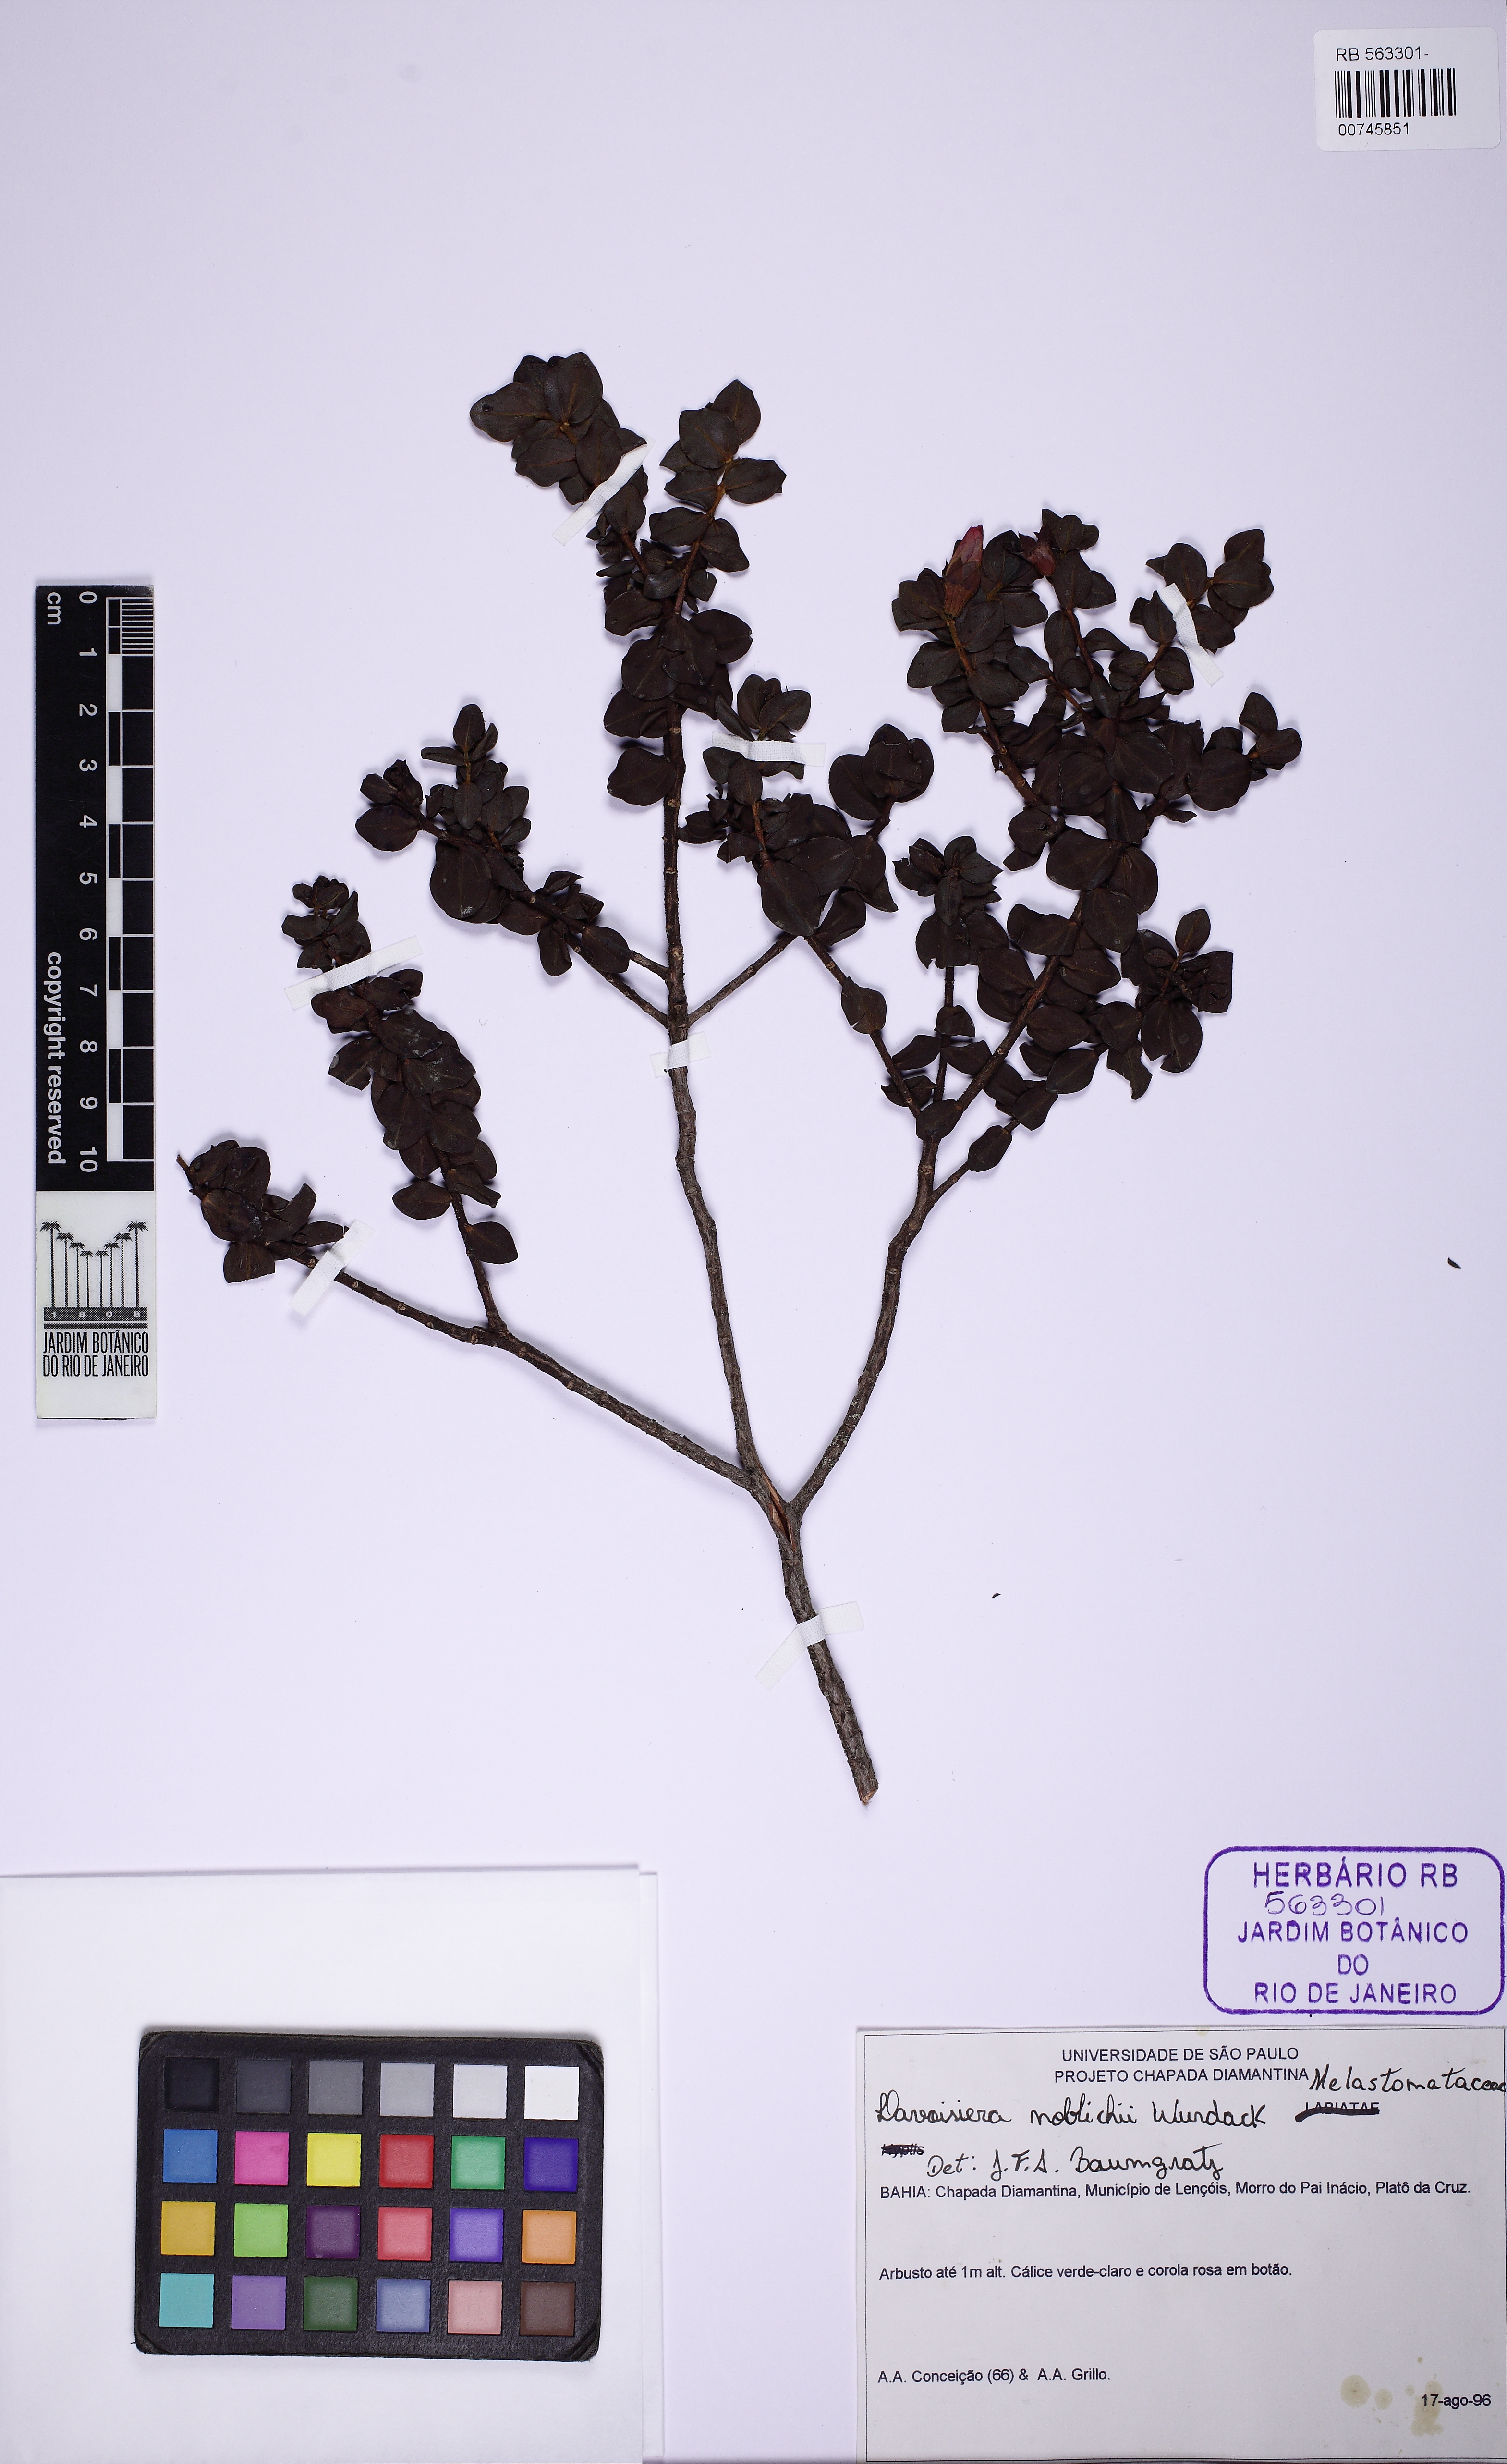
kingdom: Plantae
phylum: Tracheophyta
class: Magnoliopsida
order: Myrtales
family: Melastomataceae
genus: Microlicia
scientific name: Microlicia noblickii
